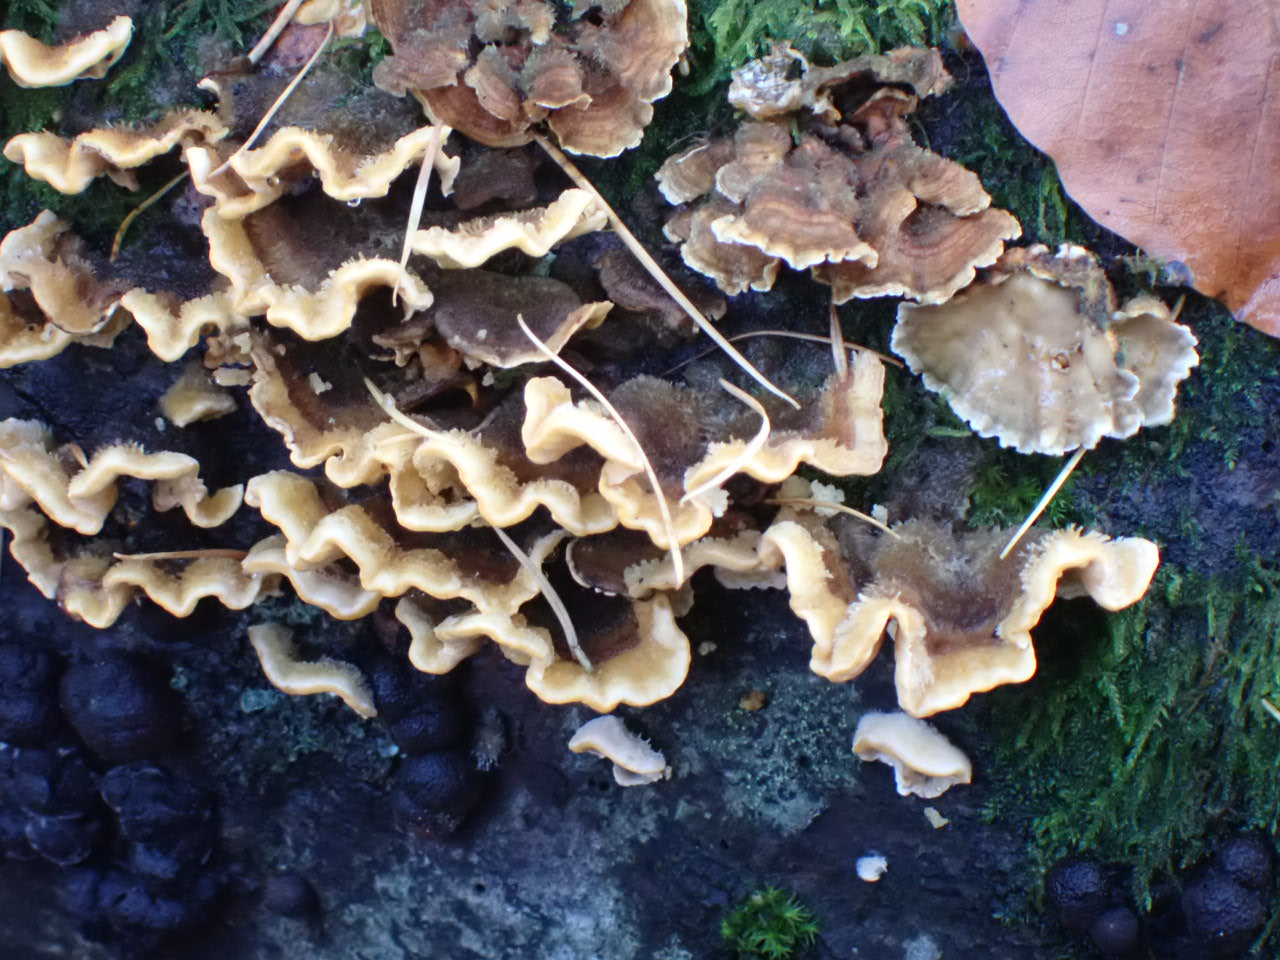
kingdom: Fungi
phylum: Basidiomycota
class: Agaricomycetes
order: Russulales
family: Stereaceae
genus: Stereum
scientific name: Stereum hirsutum
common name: håret lædersvamp
